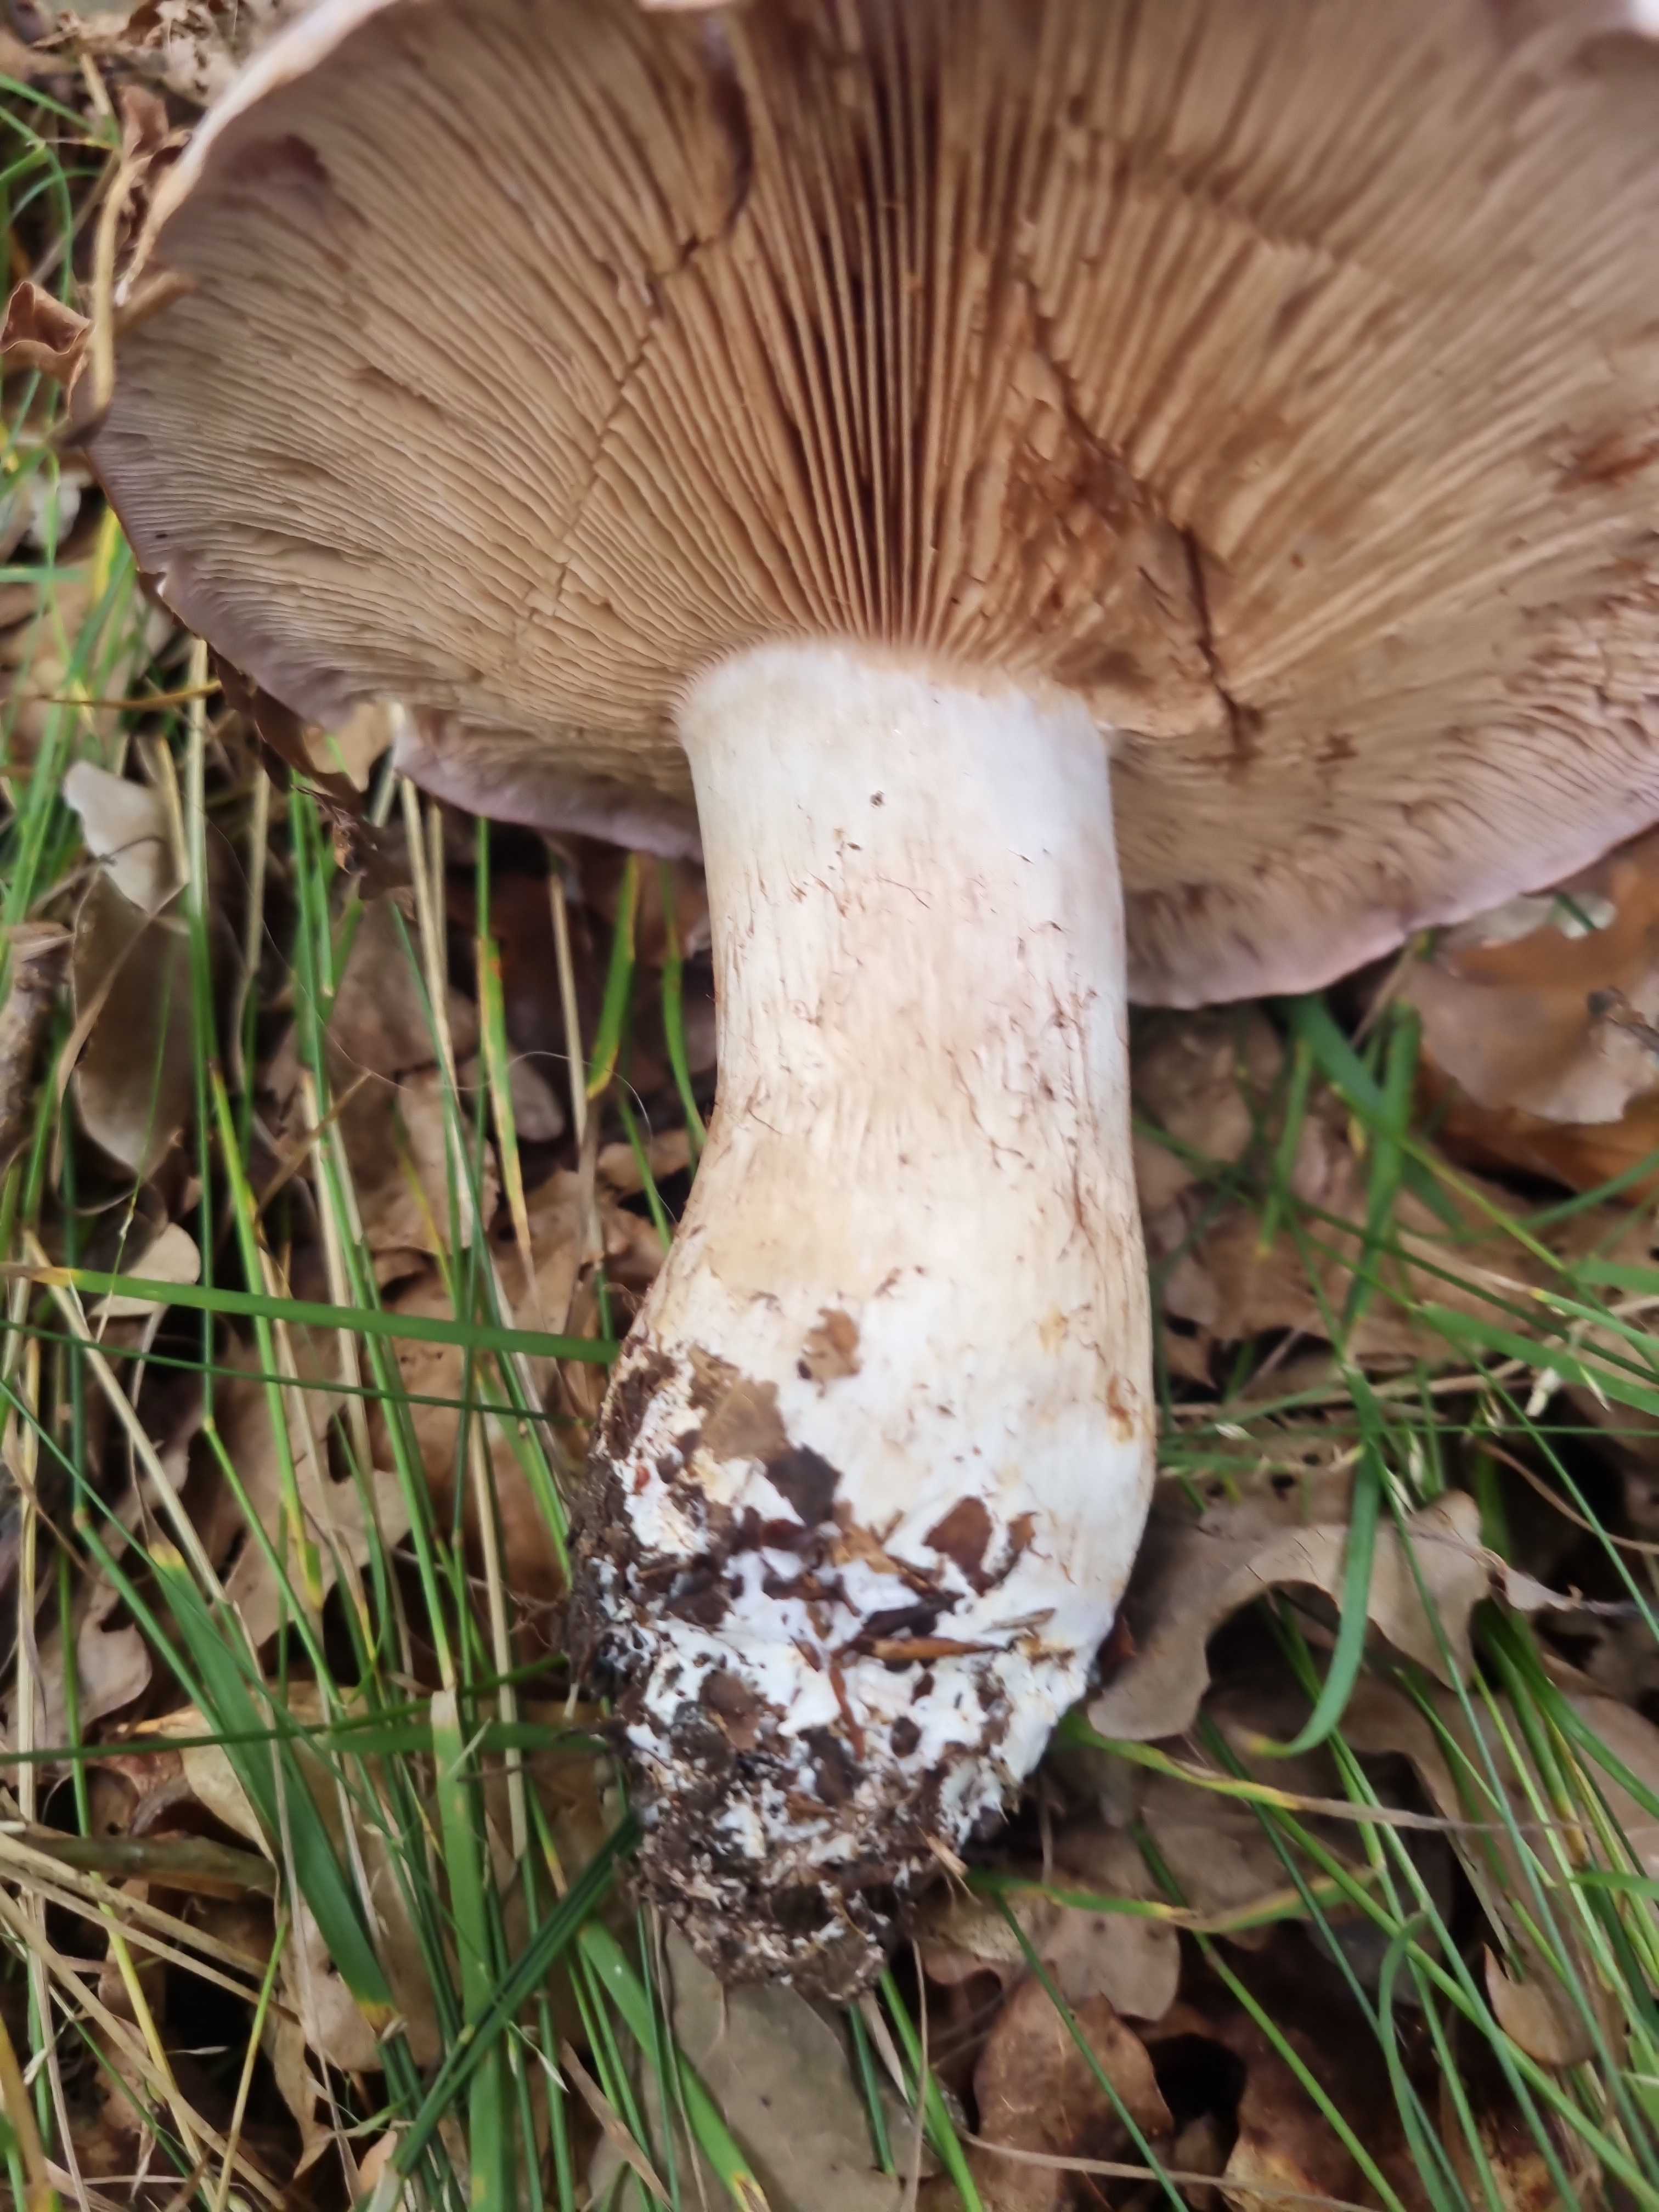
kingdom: Fungi
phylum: Basidiomycota
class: Agaricomycetes
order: Agaricales
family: Cortinariaceae
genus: Cortinarius
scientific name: Cortinarius largus
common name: violetrandet slørhat
